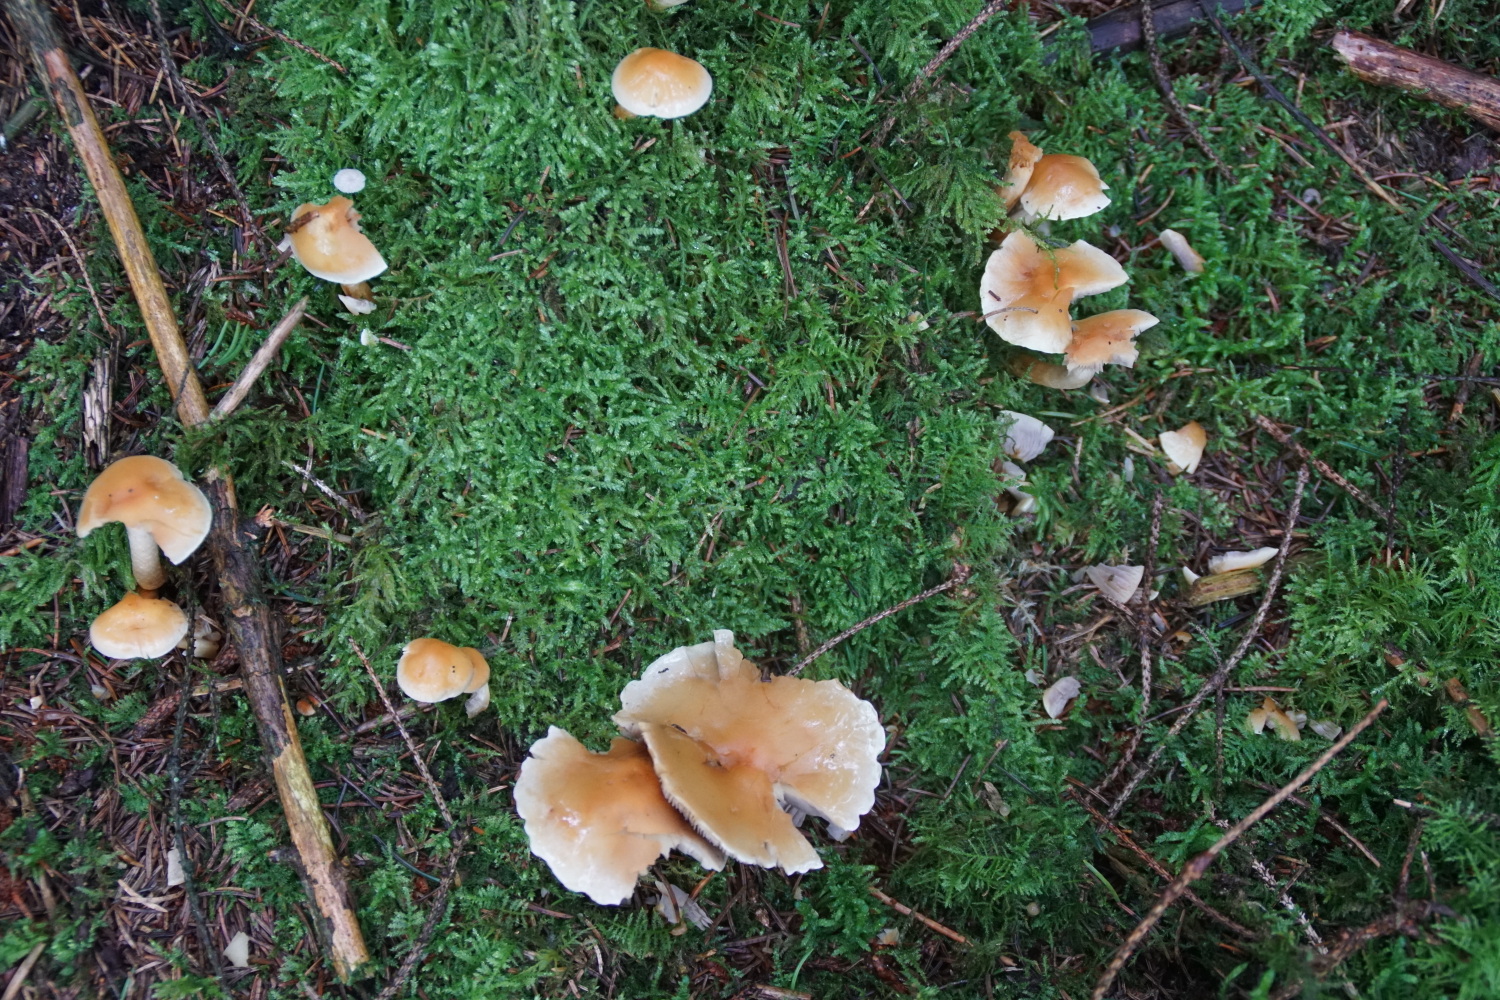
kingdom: Fungi
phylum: Basidiomycota
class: Agaricomycetes
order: Agaricales
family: Strophariaceae
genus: Hypholoma
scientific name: Hypholoma capnoides
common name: gran-svovlhat
